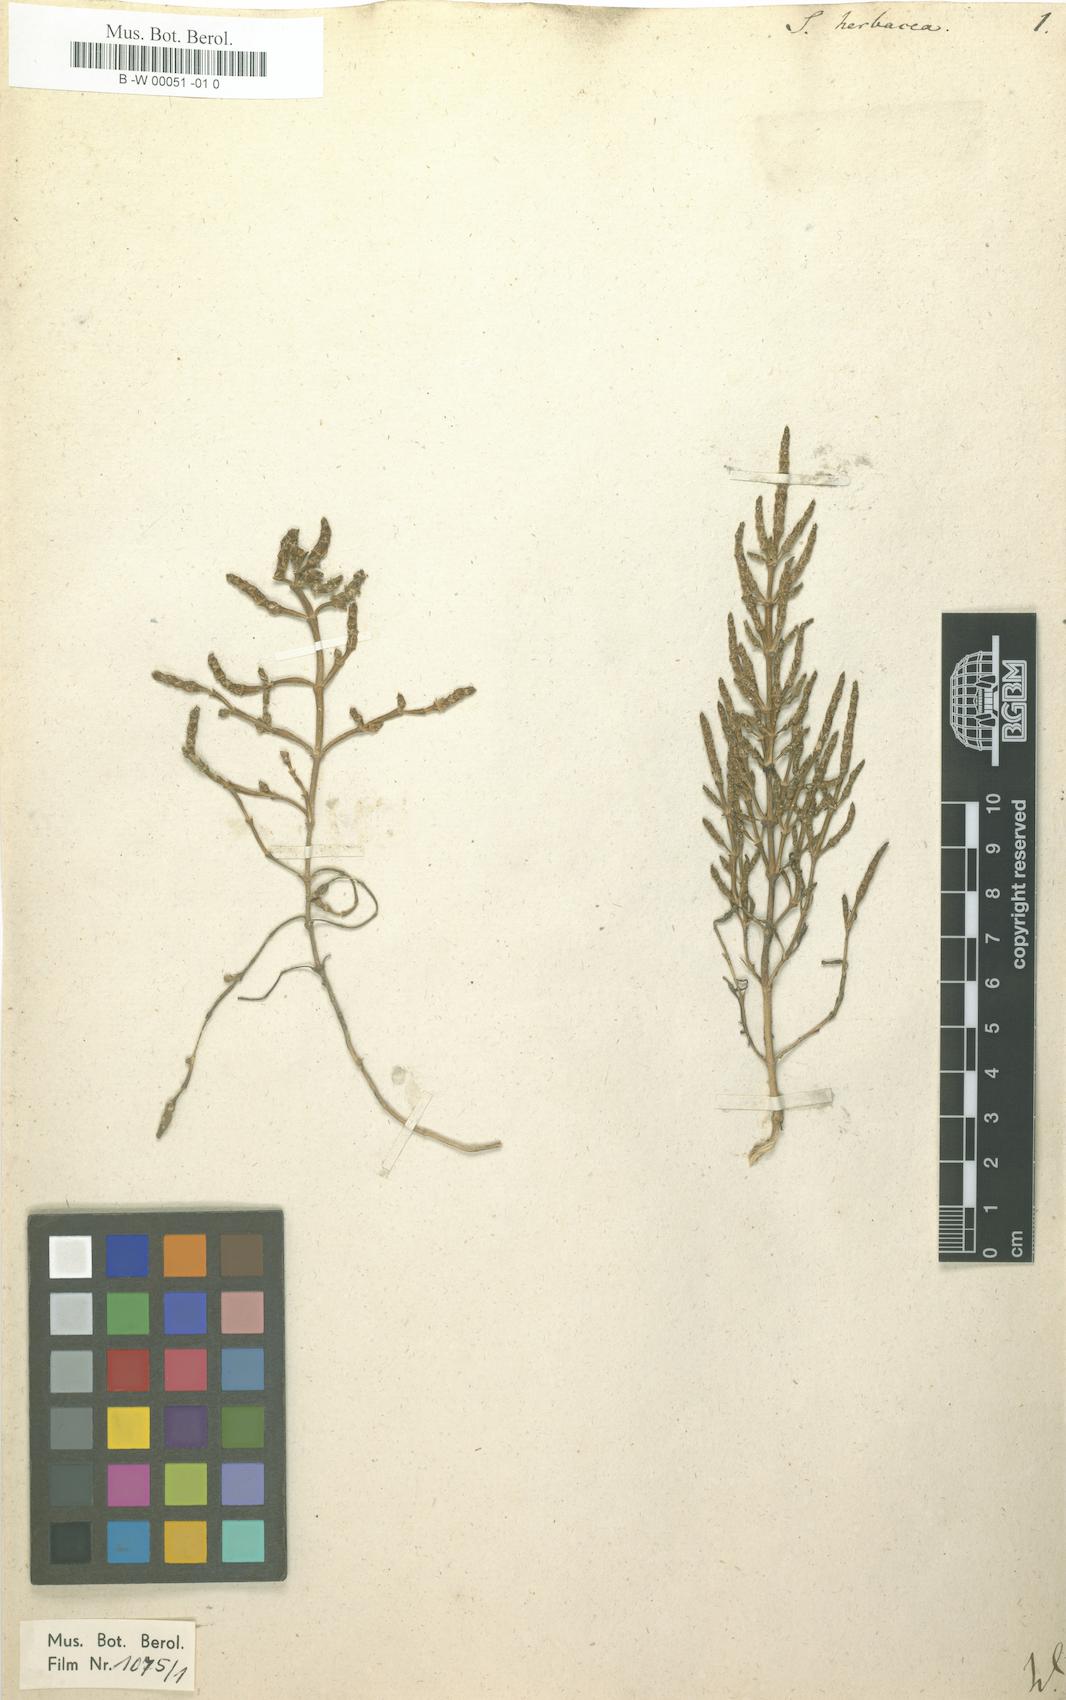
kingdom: Plantae
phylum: Tracheophyta
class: Magnoliopsida
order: Caryophyllales
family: Amaranthaceae
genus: Salicornia
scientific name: Salicornia europaea
